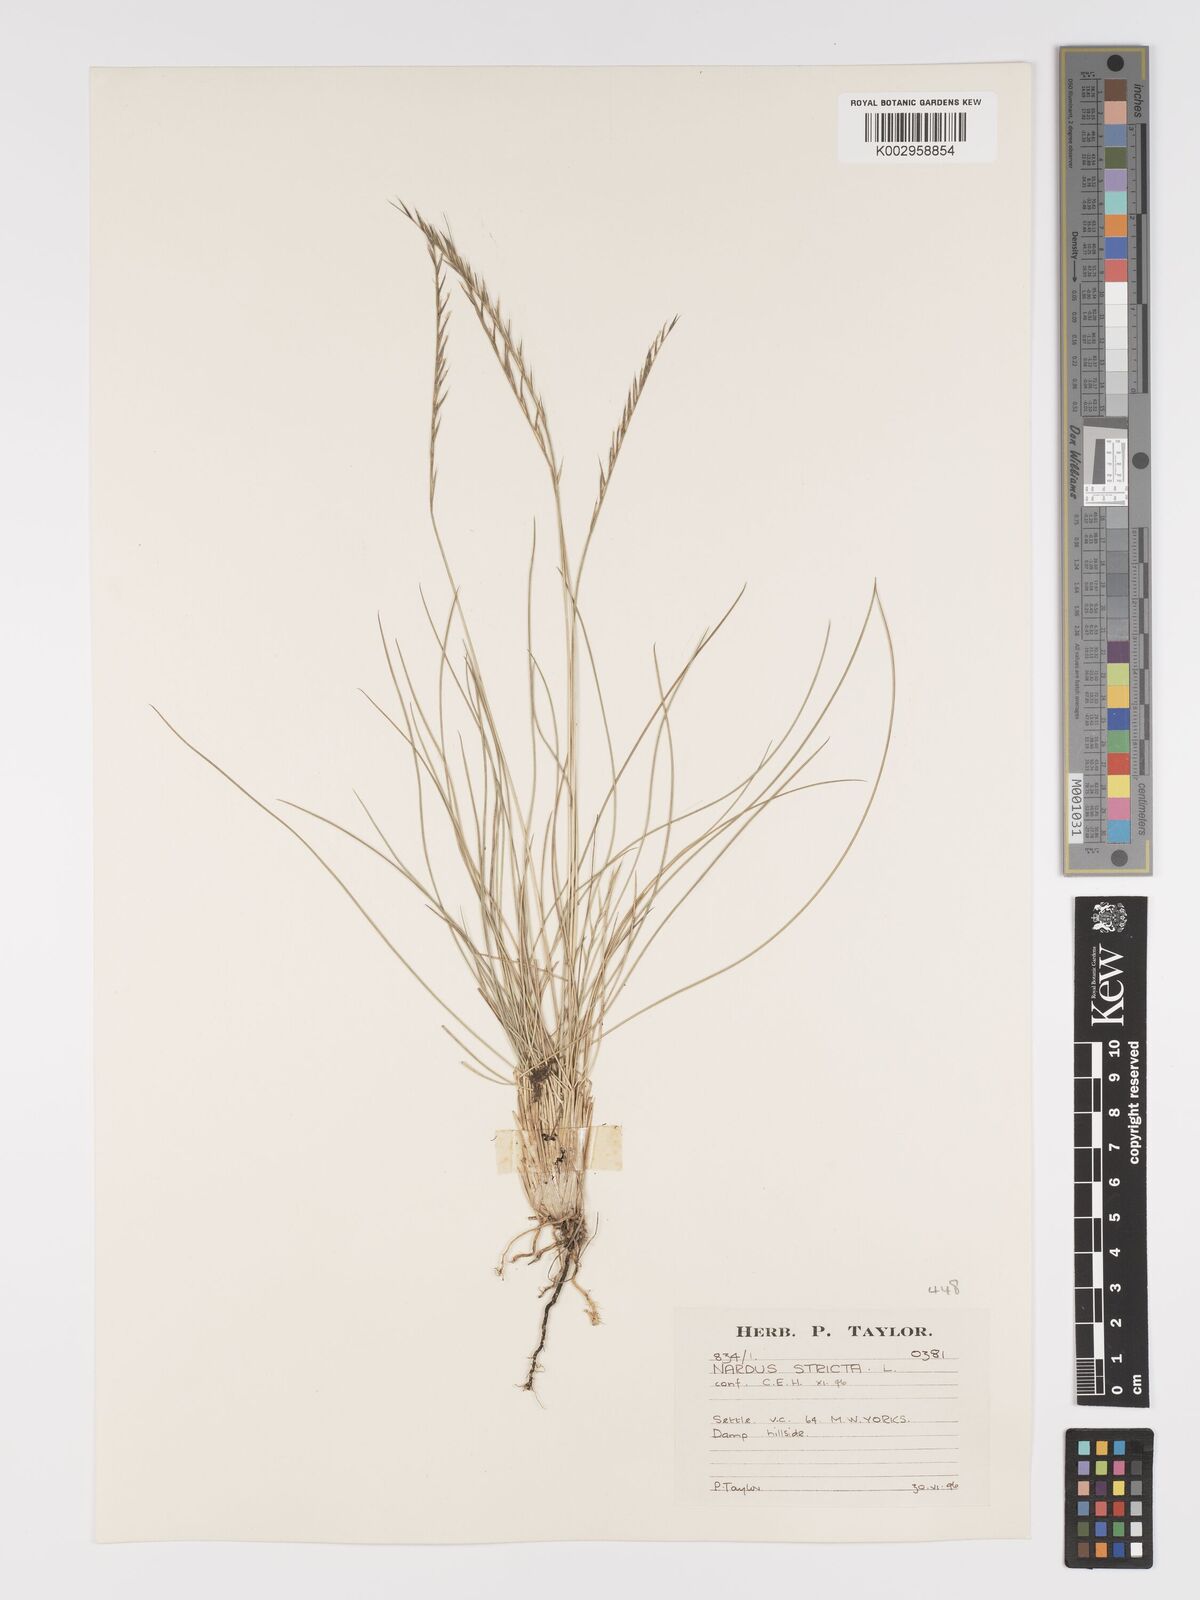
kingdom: Plantae
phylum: Tracheophyta
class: Liliopsida
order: Poales
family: Poaceae
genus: Nardus
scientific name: Nardus stricta
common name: Mat-grass
